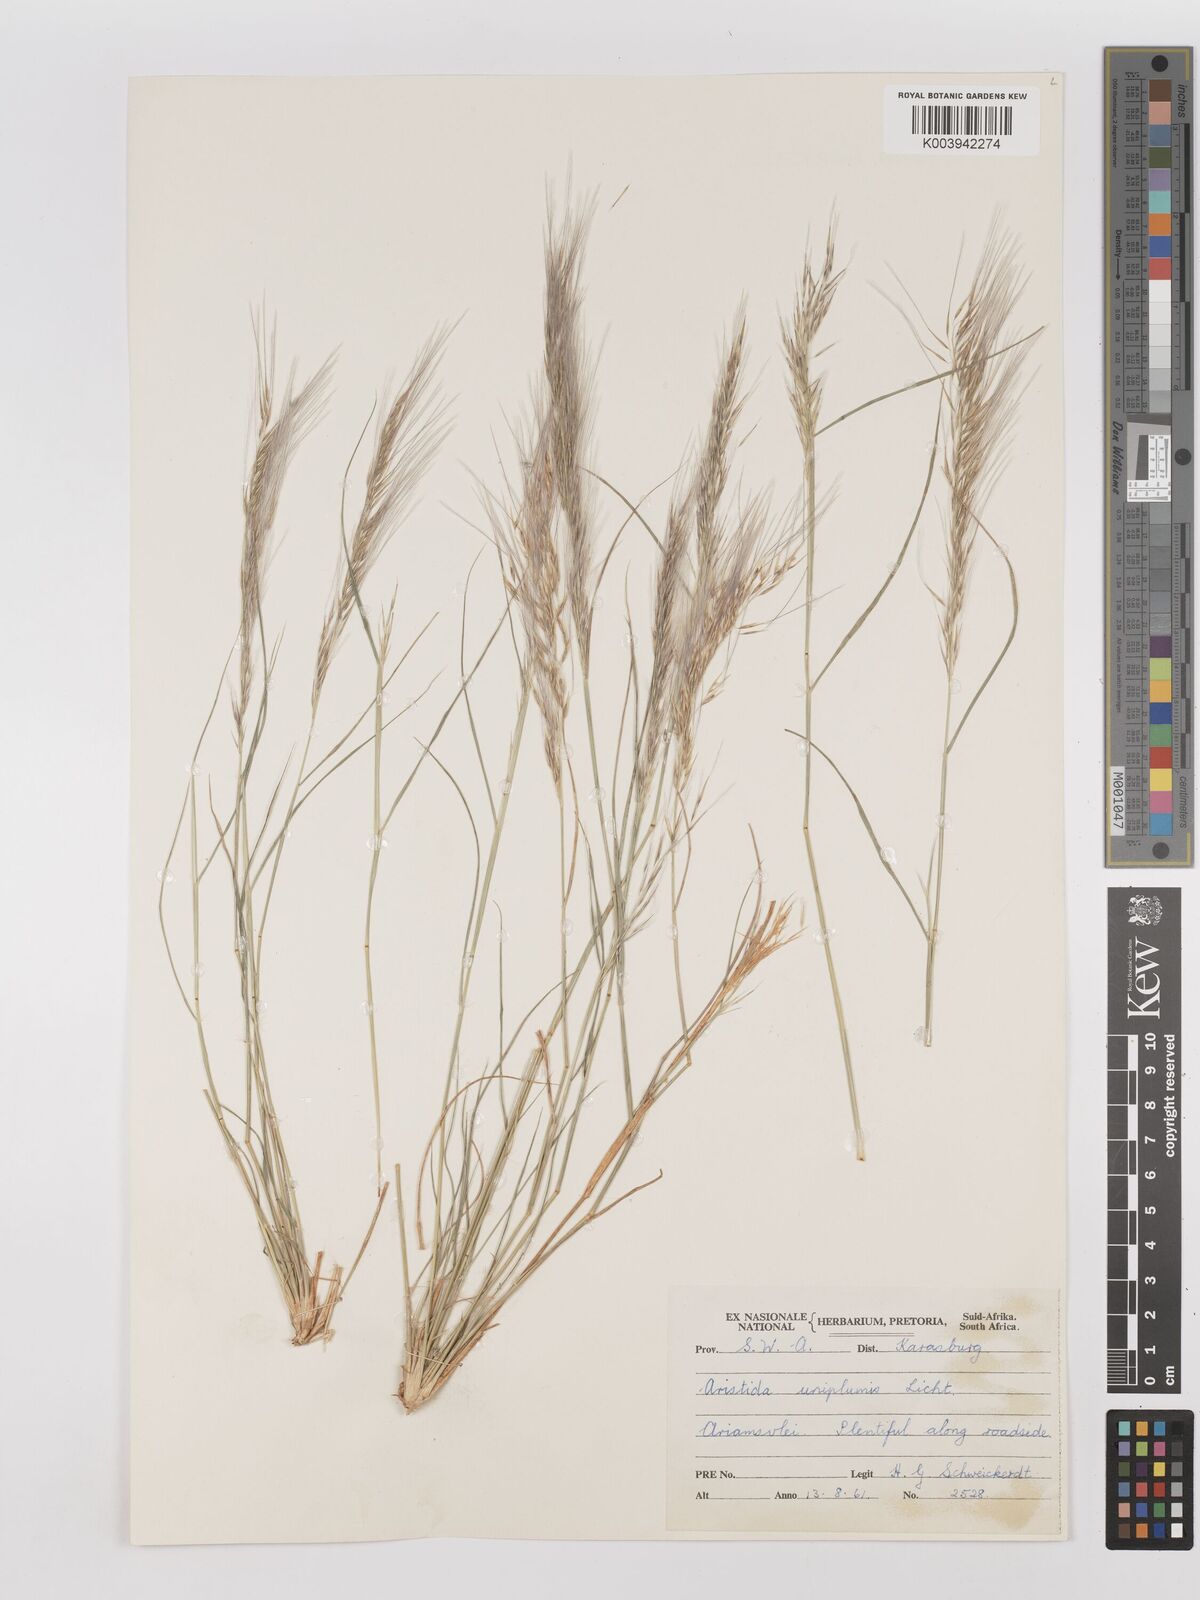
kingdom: Plantae
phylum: Tracheophyta
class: Liliopsida
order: Poales
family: Poaceae
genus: Stipagrostis
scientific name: Stipagrostis uniplumis
